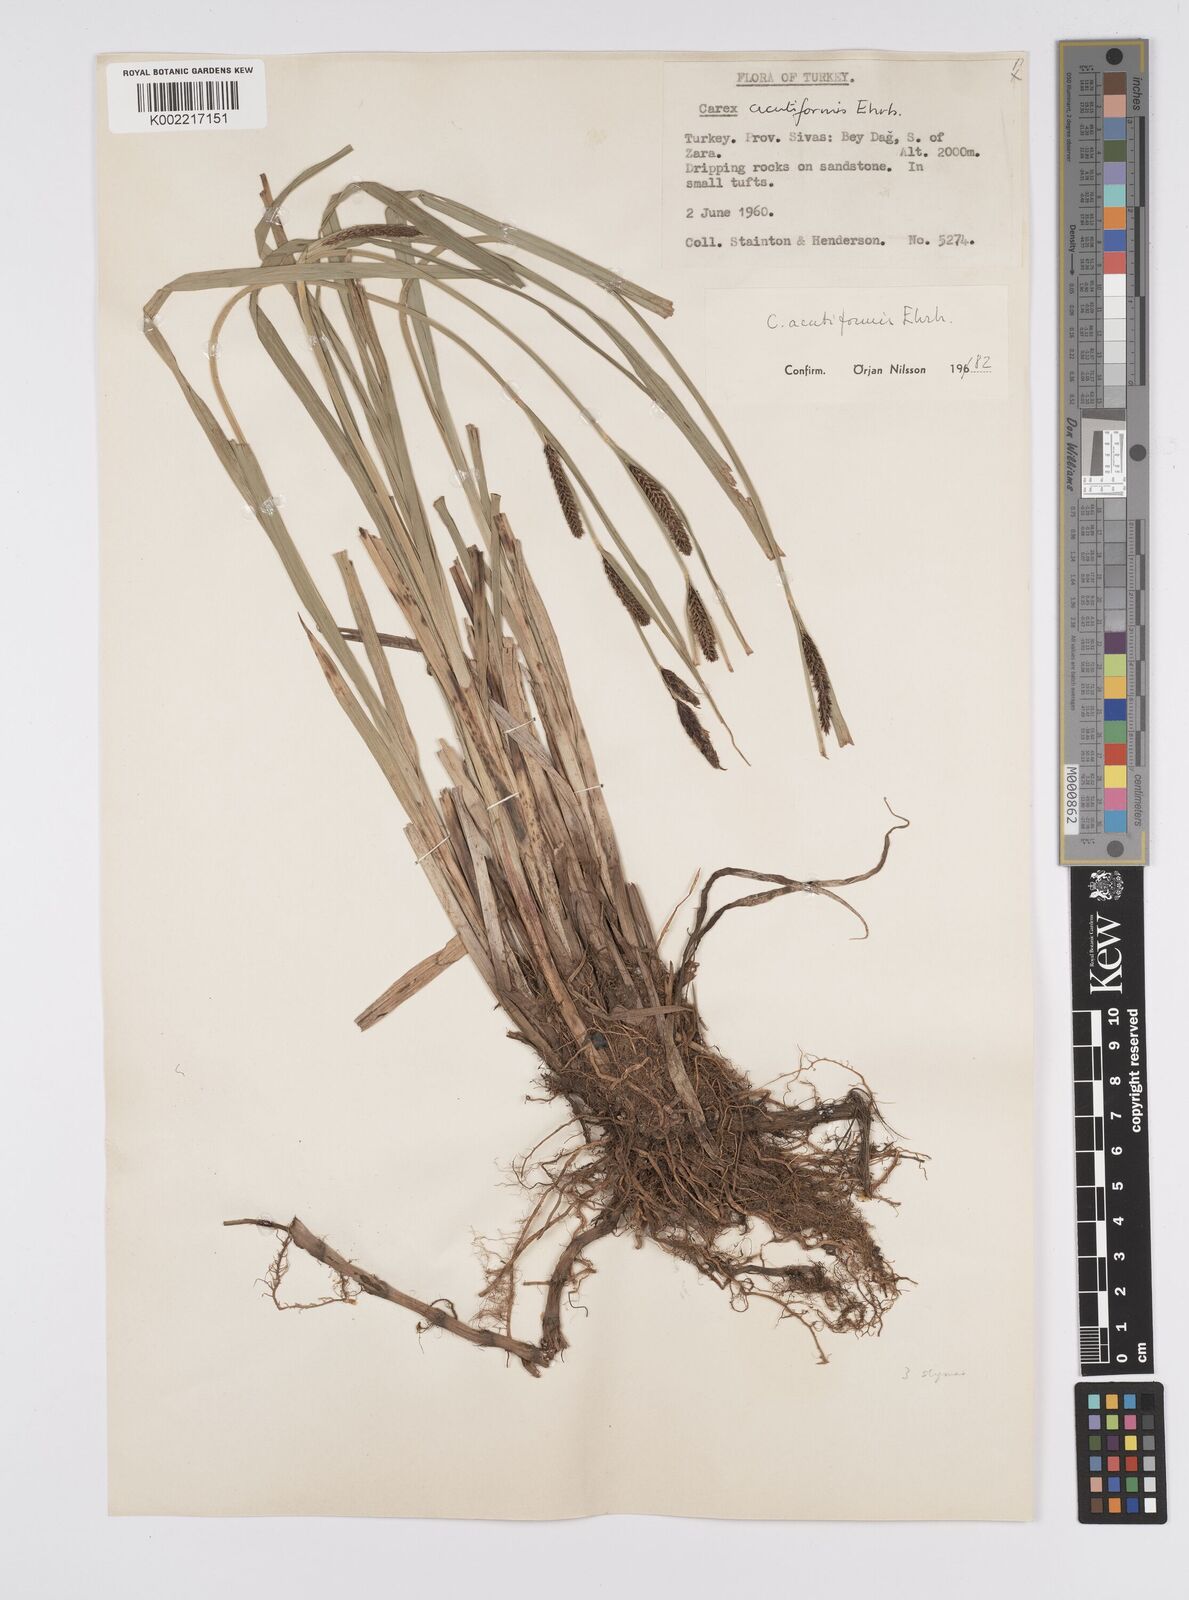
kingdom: Plantae
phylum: Tracheophyta
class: Liliopsida
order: Poales
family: Cyperaceae
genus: Carex
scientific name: Carex acutiformis
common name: Lesser pond-sedge
